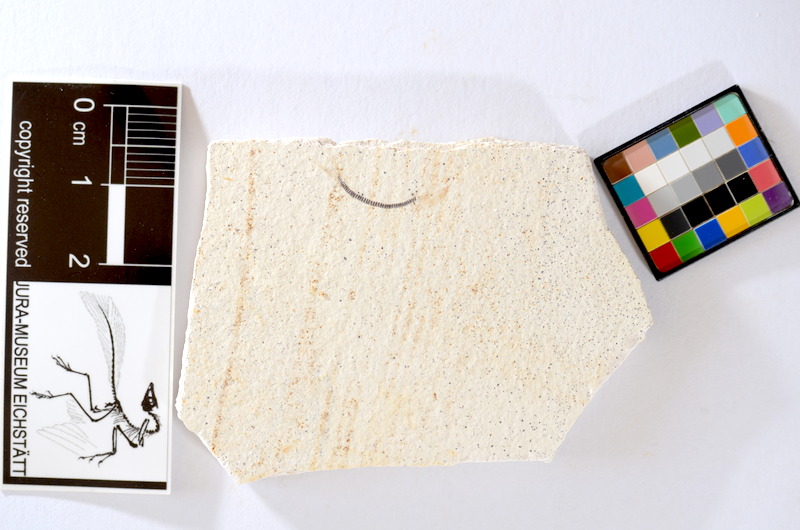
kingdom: Animalia
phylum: Chordata
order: Salmoniformes
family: Orthogonikleithridae
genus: Orthogonikleithrus
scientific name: Orthogonikleithrus hoelli
